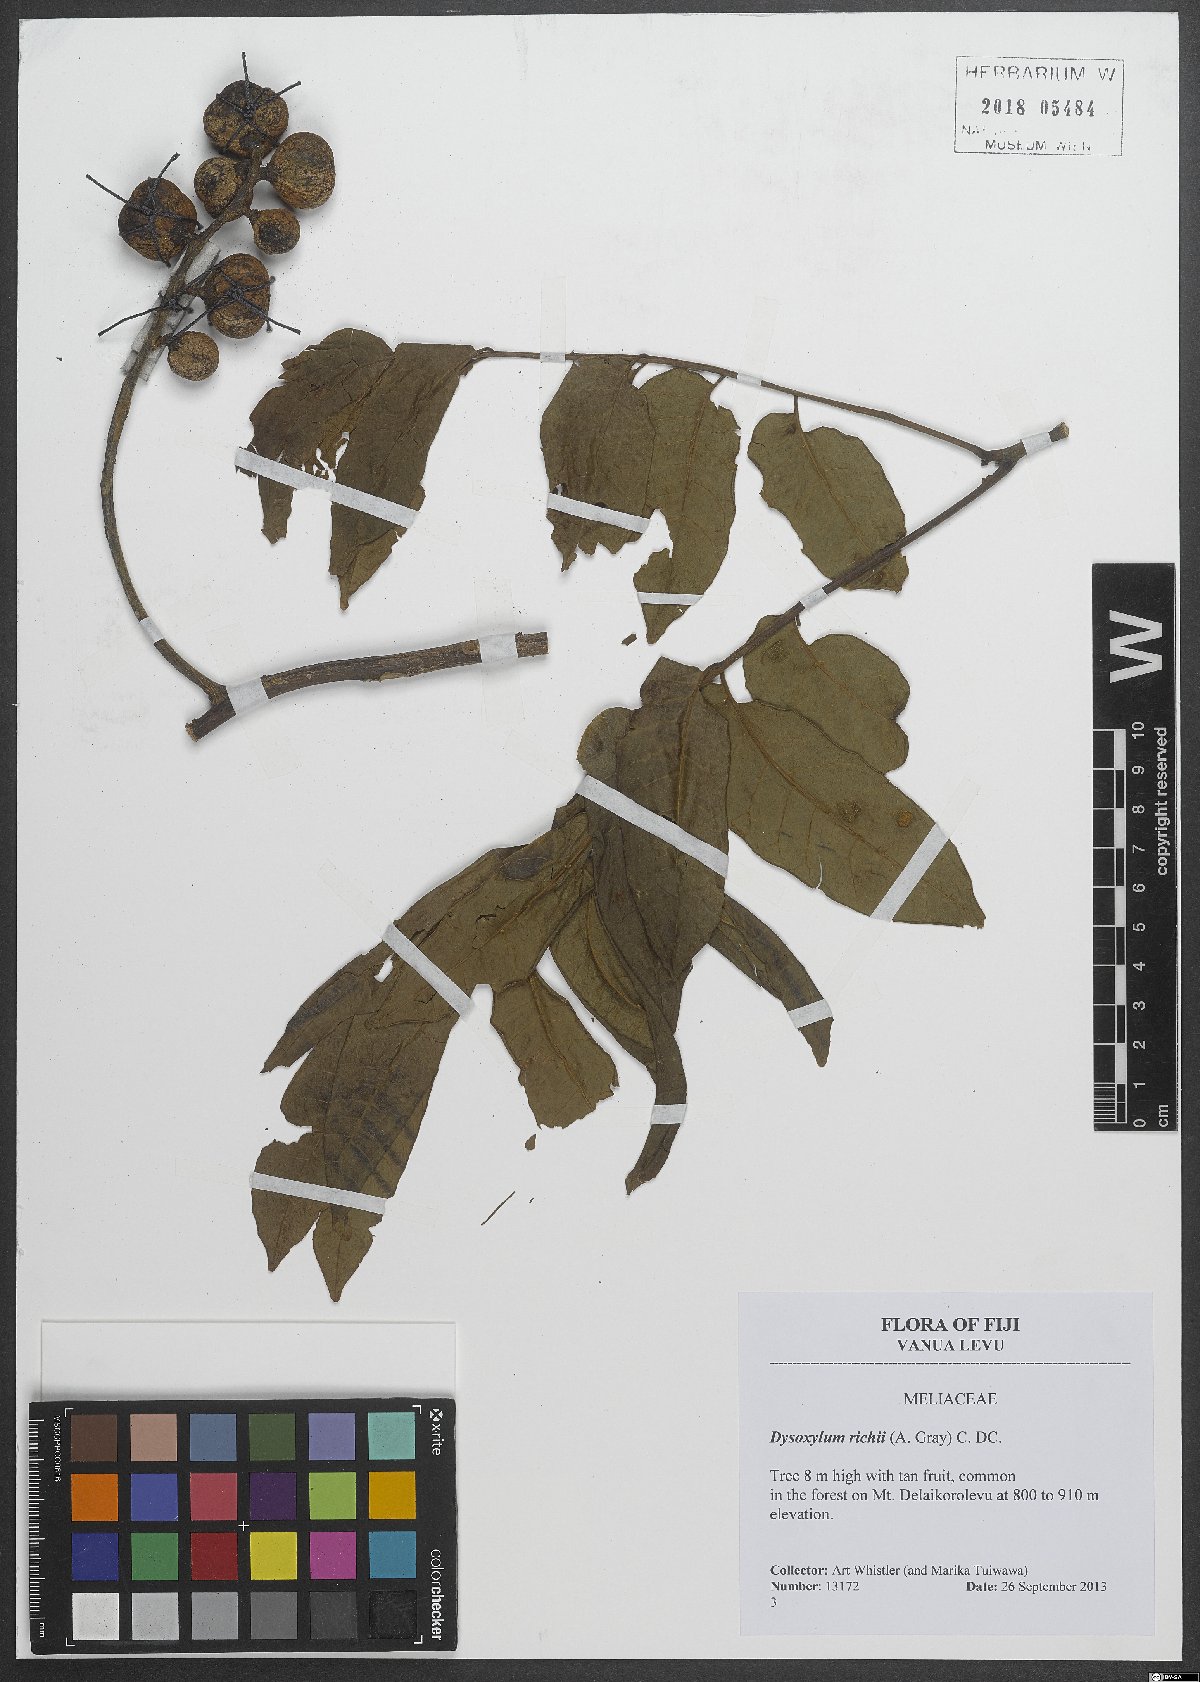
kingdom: Plantae
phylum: Tracheophyta
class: Magnoliopsida
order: Sapindales
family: Meliaceae
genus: Didymocheton
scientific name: Didymocheton mollis
